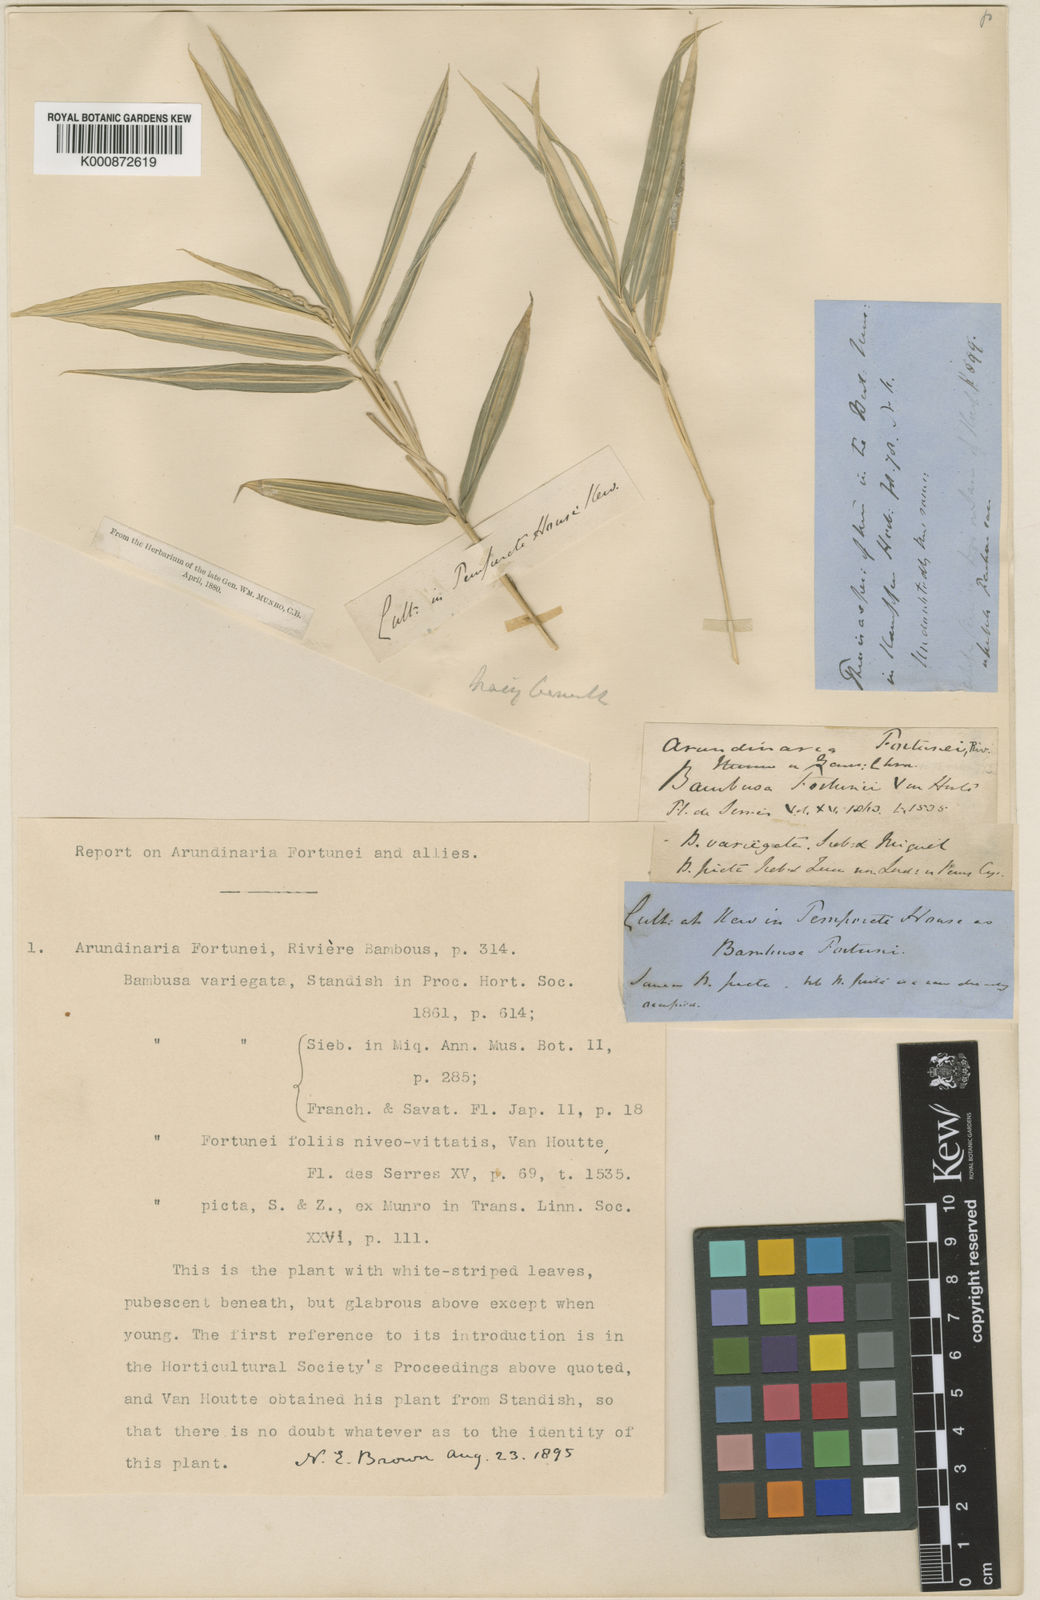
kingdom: Plantae
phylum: Tracheophyta
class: Liliopsida
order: Poales
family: Poaceae
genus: Arundinaria
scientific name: Arundinaria
